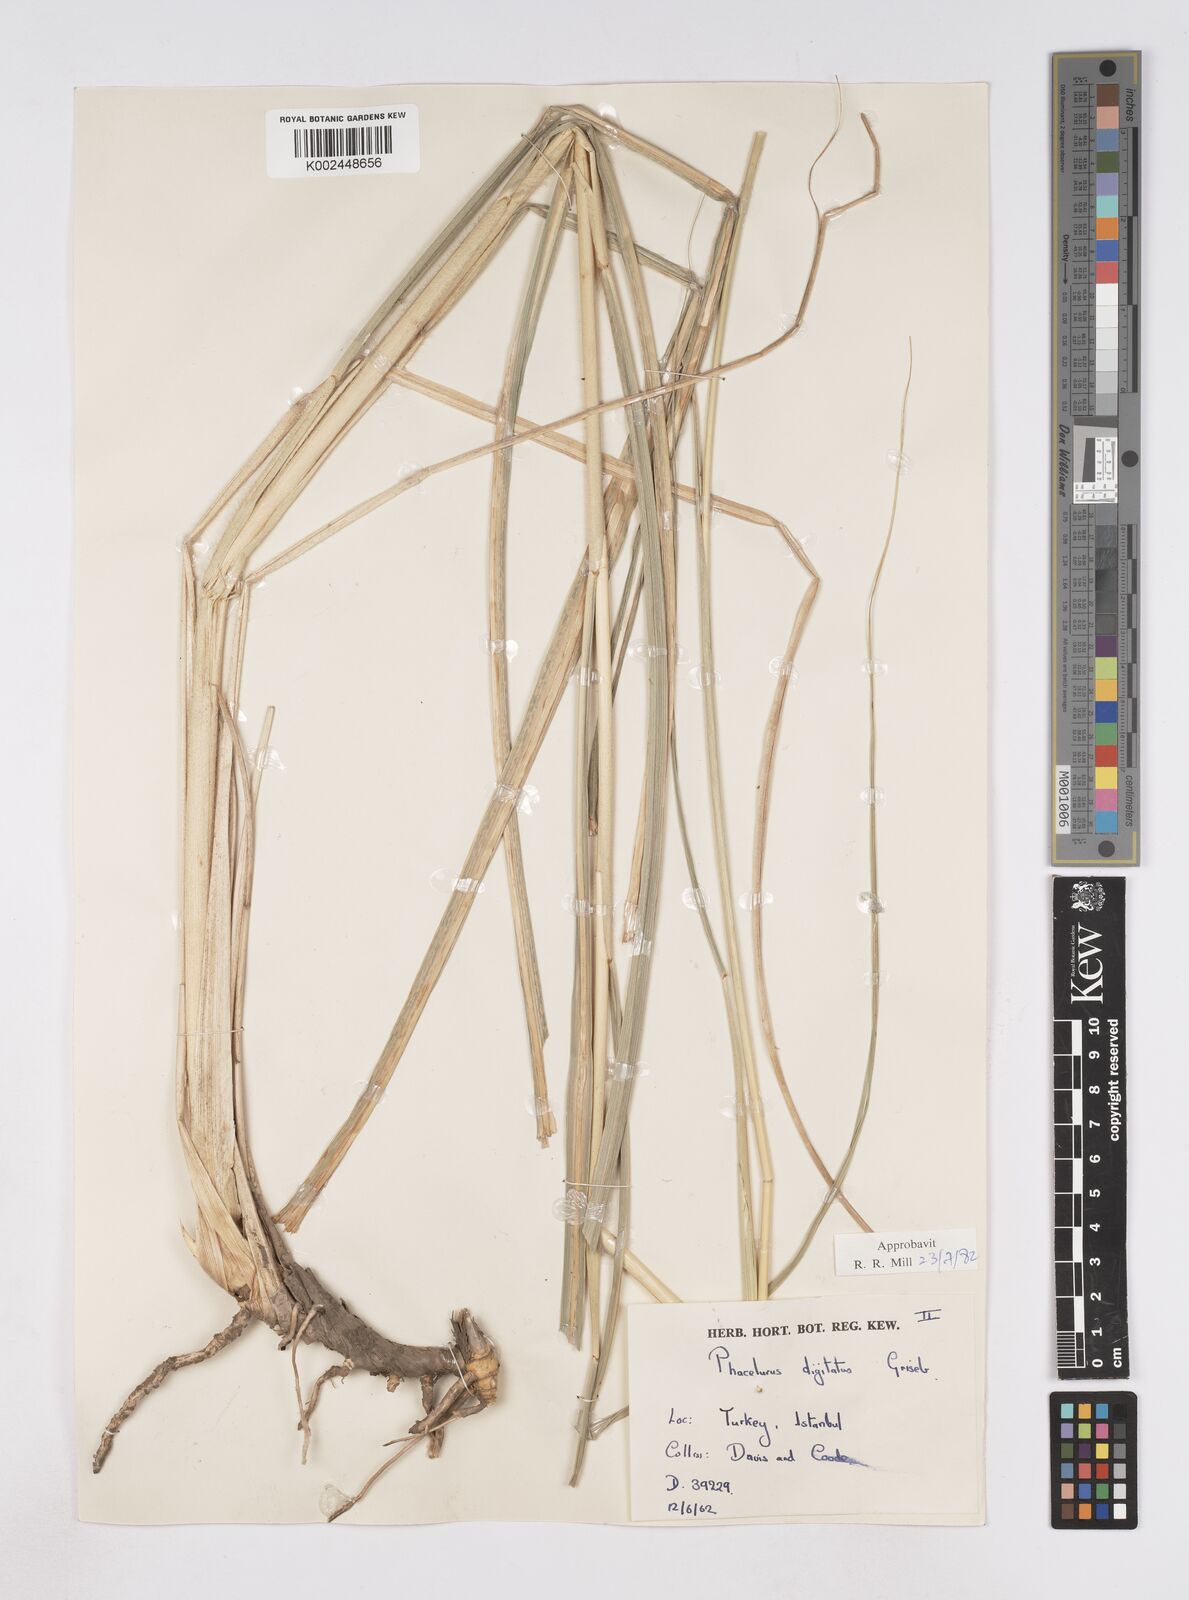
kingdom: Plantae
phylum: Tracheophyta
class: Liliopsida
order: Poales
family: Poaceae
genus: Phacelurus
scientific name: Phacelurus digitatus
